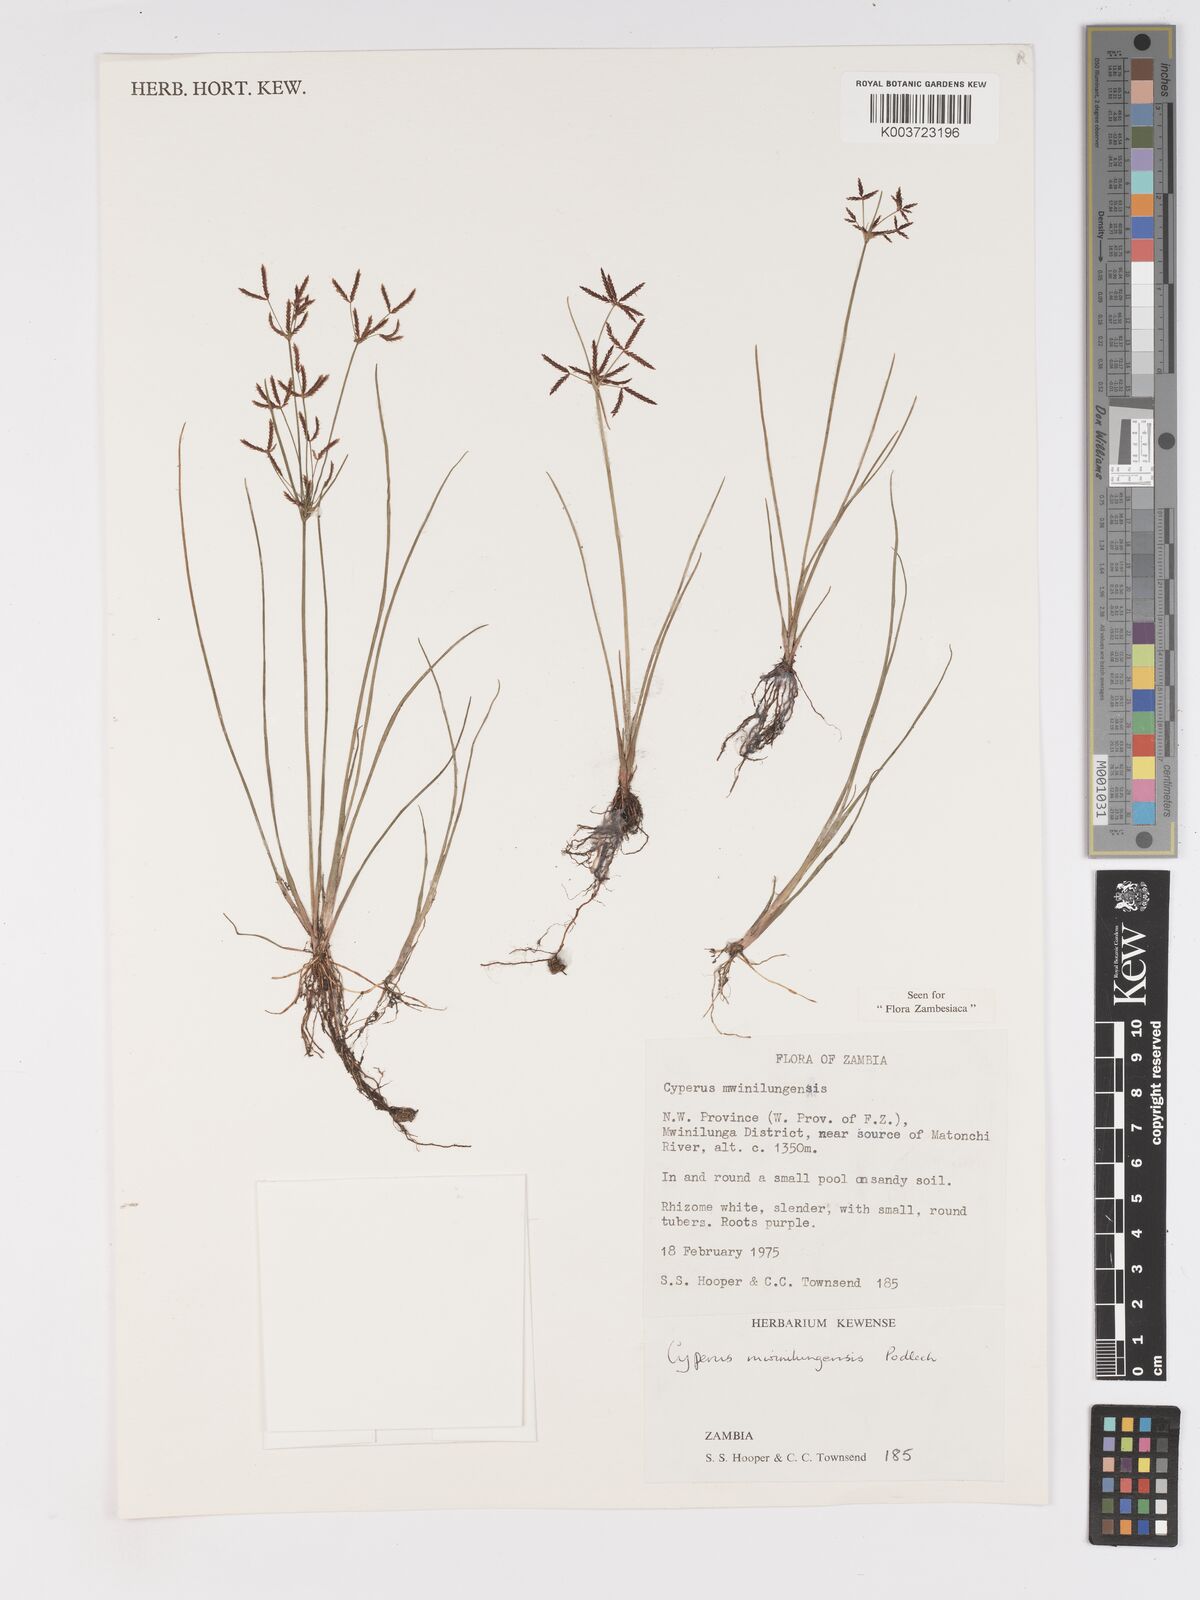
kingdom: Plantae
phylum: Tracheophyta
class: Liliopsida
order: Poales
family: Cyperaceae
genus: Cyperus
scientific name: Cyperus mwinilungensis
